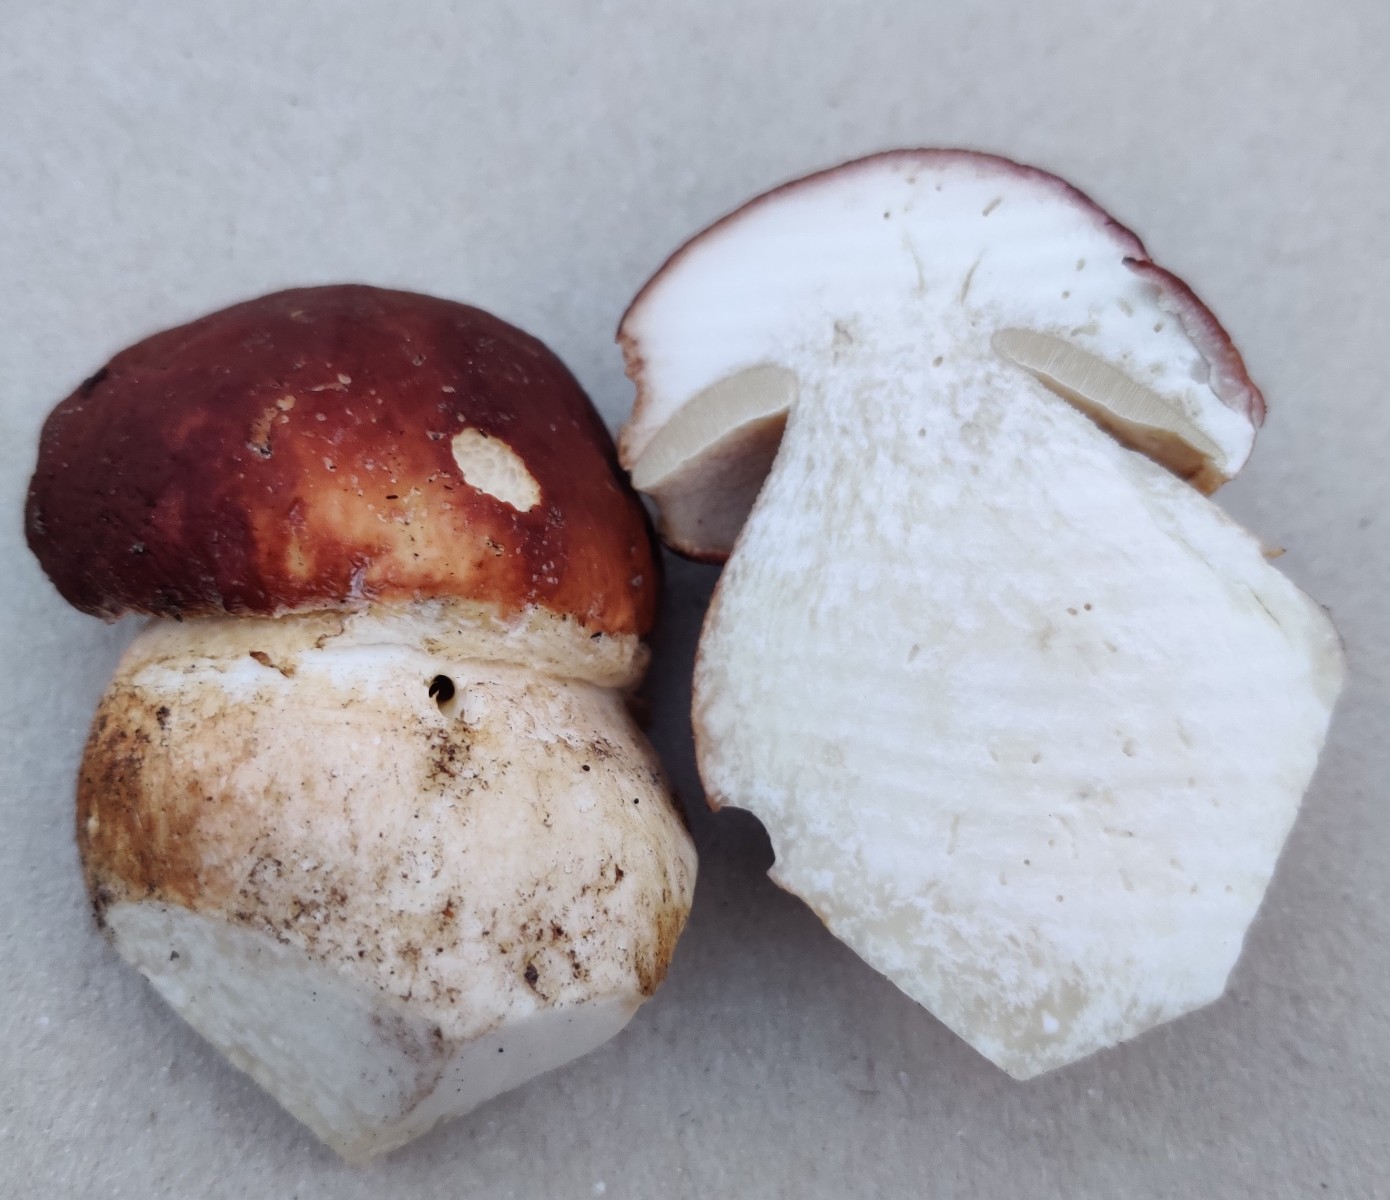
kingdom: Fungi
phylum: Basidiomycota
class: Agaricomycetes
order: Boletales
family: Boletaceae
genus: Boletus
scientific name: Boletus edulis
